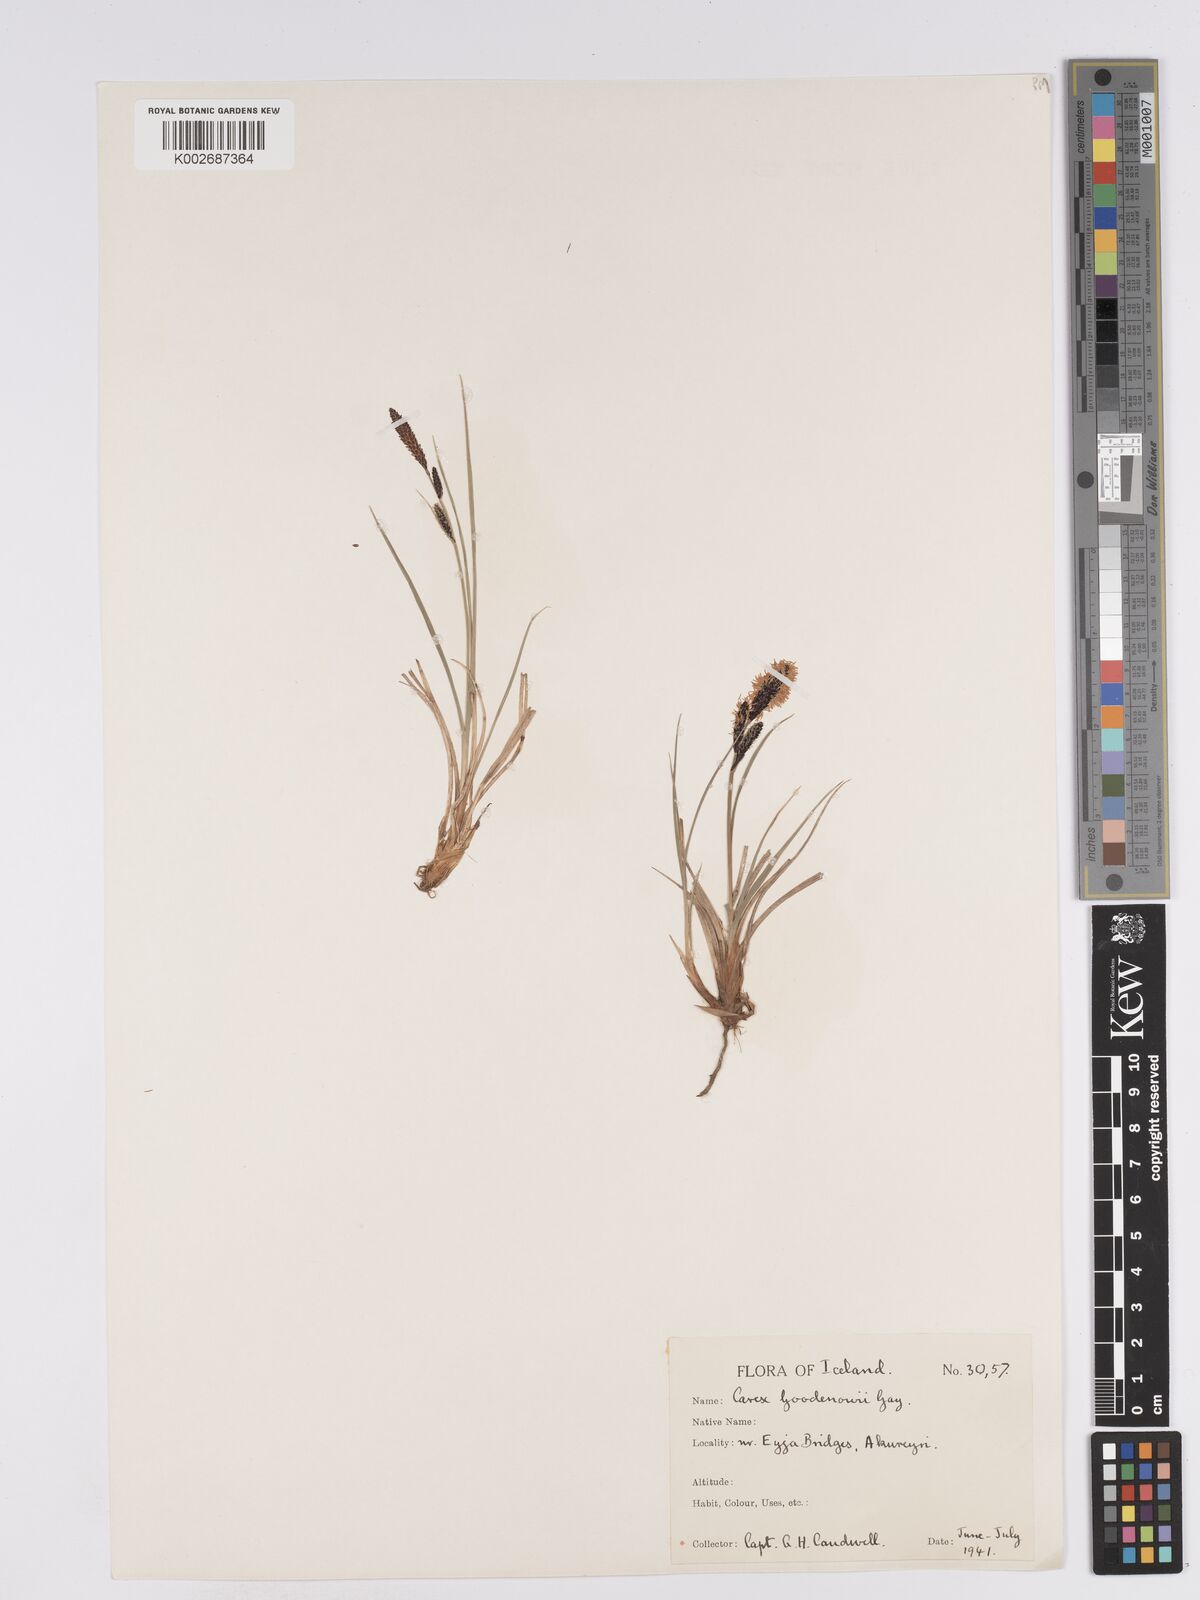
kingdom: Plantae
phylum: Tracheophyta
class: Liliopsida
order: Poales
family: Cyperaceae
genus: Carex
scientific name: Carex nigra
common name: Common sedge
